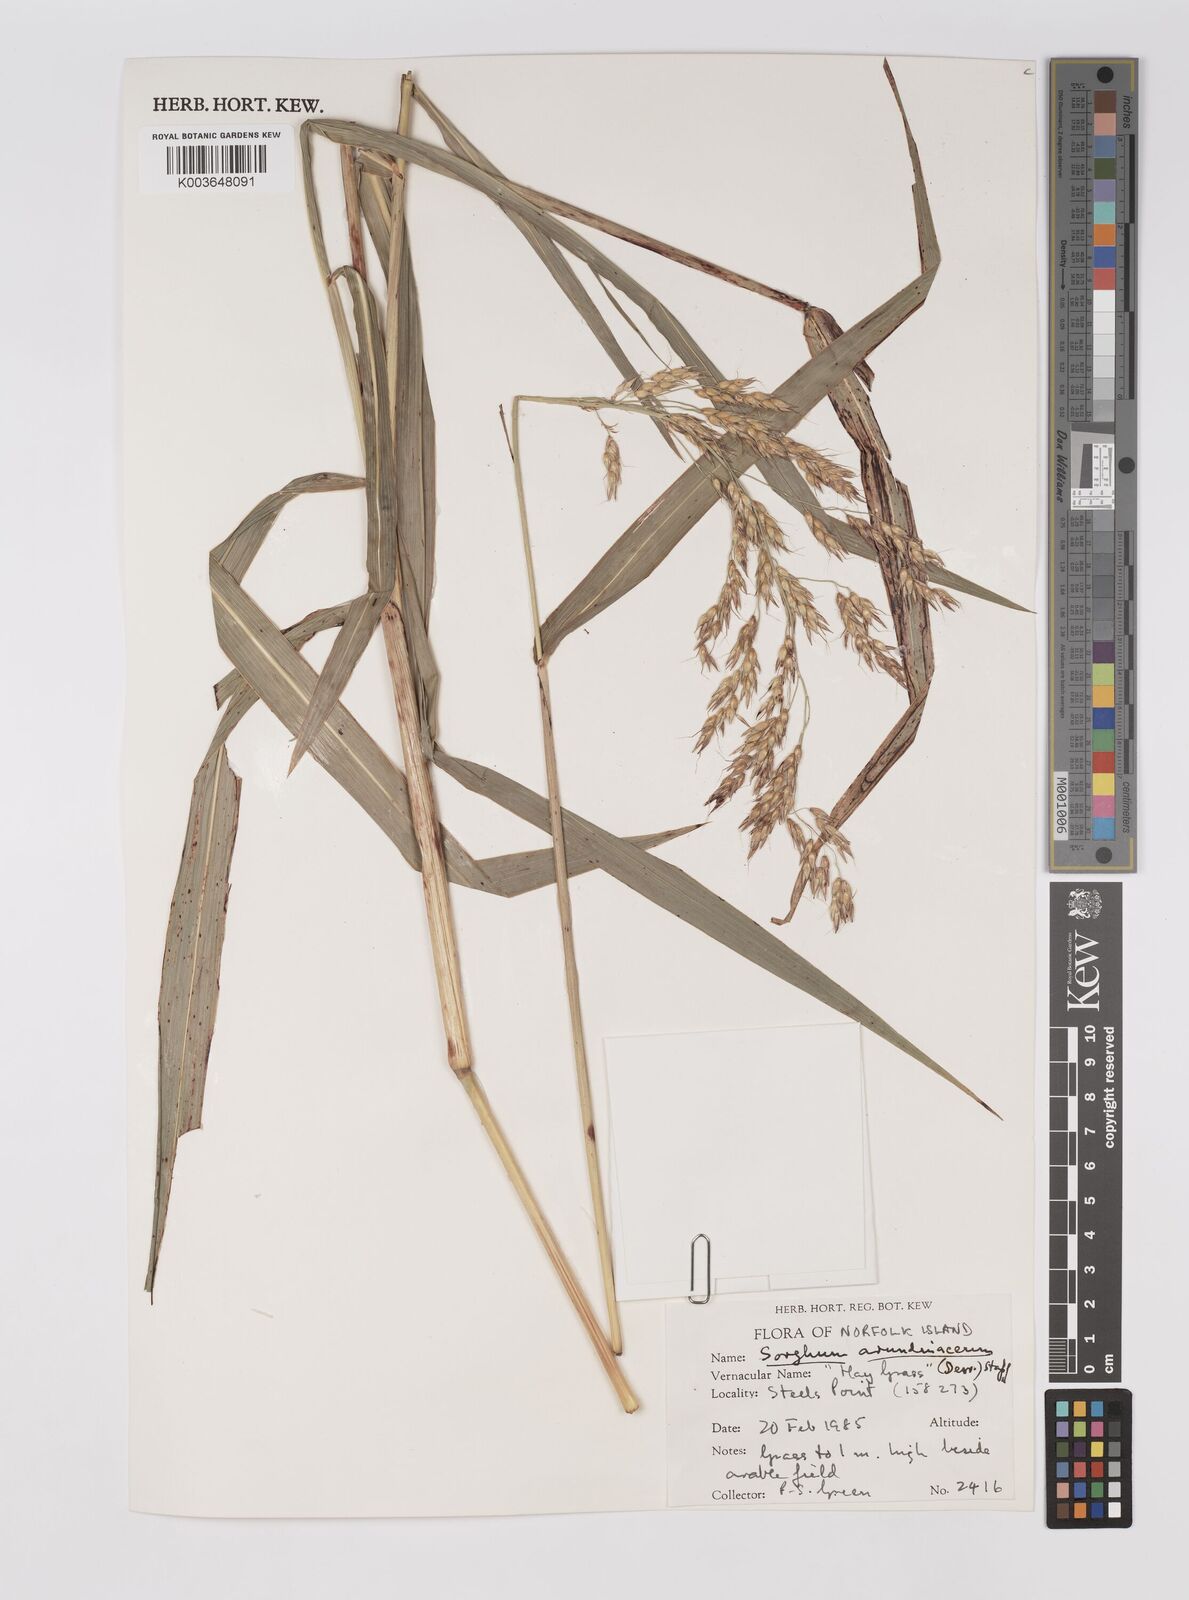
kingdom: Plantae
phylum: Tracheophyta
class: Liliopsida
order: Poales
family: Poaceae
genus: Sorghum
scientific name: Sorghum arundinaceum
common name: Sorghum
